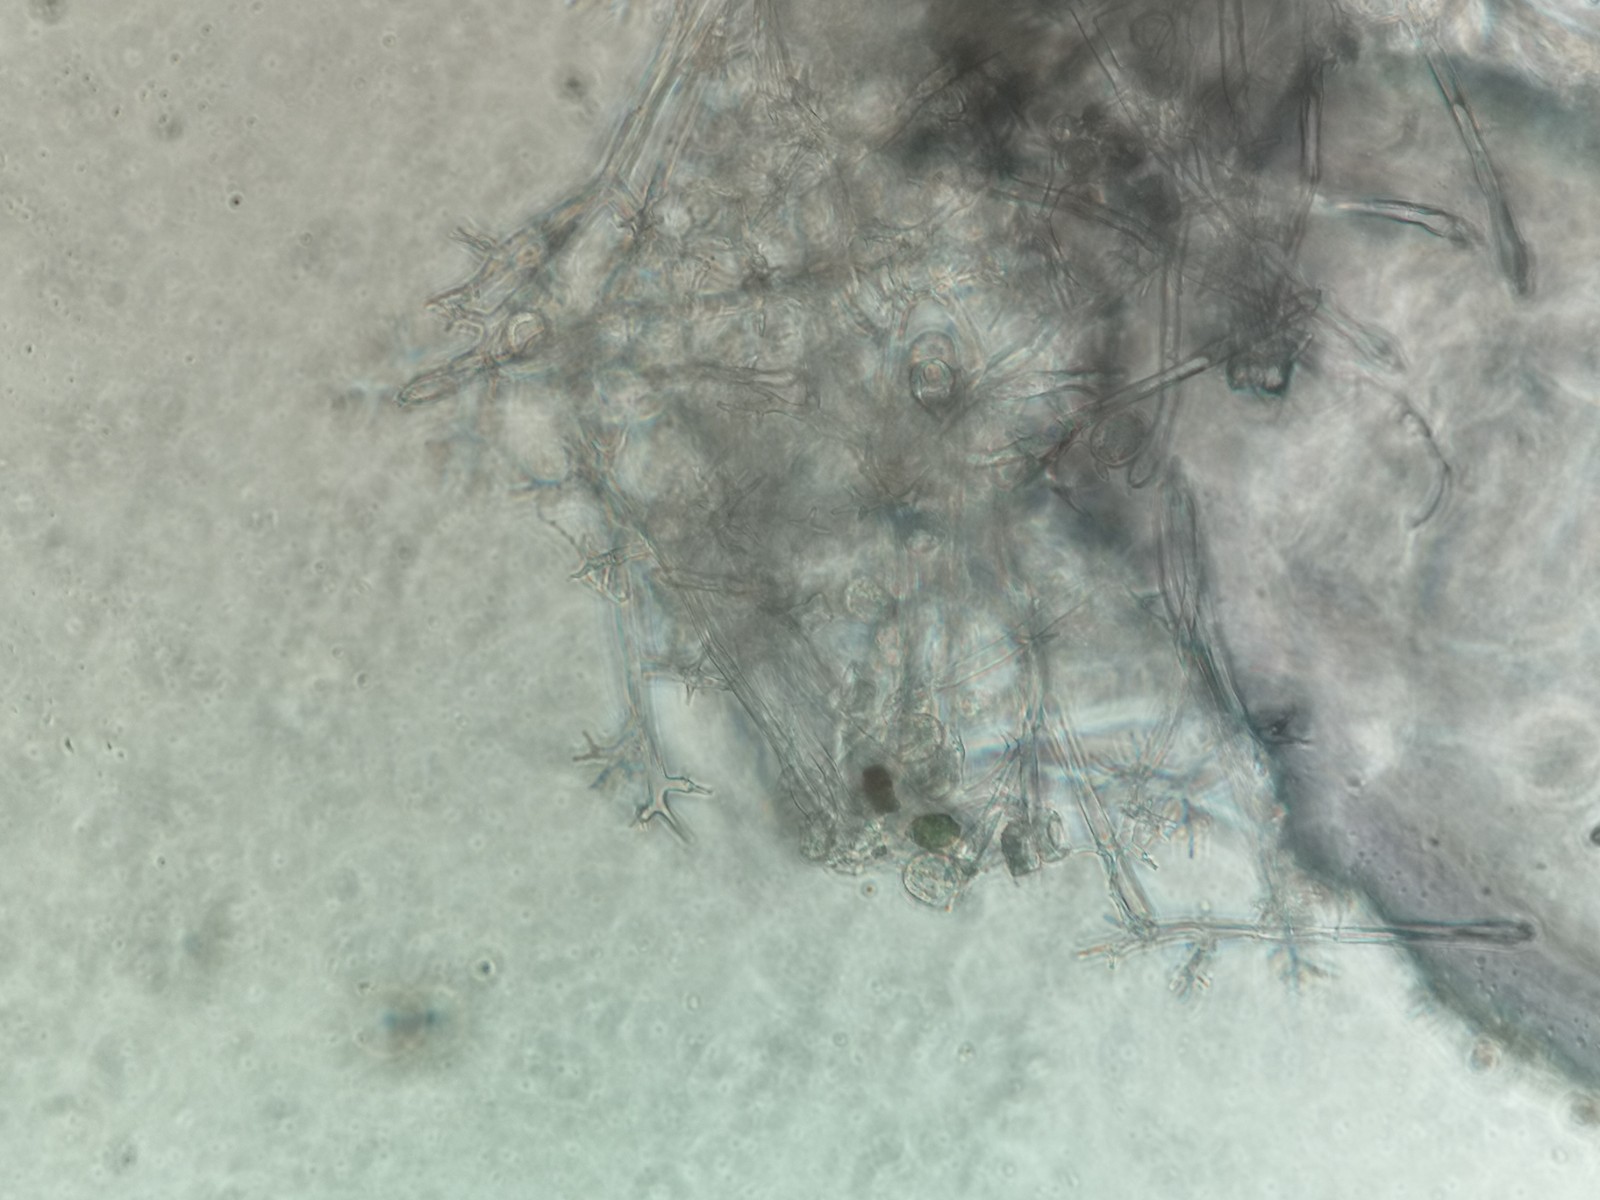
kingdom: Chromista
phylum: Oomycota
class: Peronosporea
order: Peronosporales
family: Peronosporaceae
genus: Peronospora
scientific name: Peronospora crustosa
